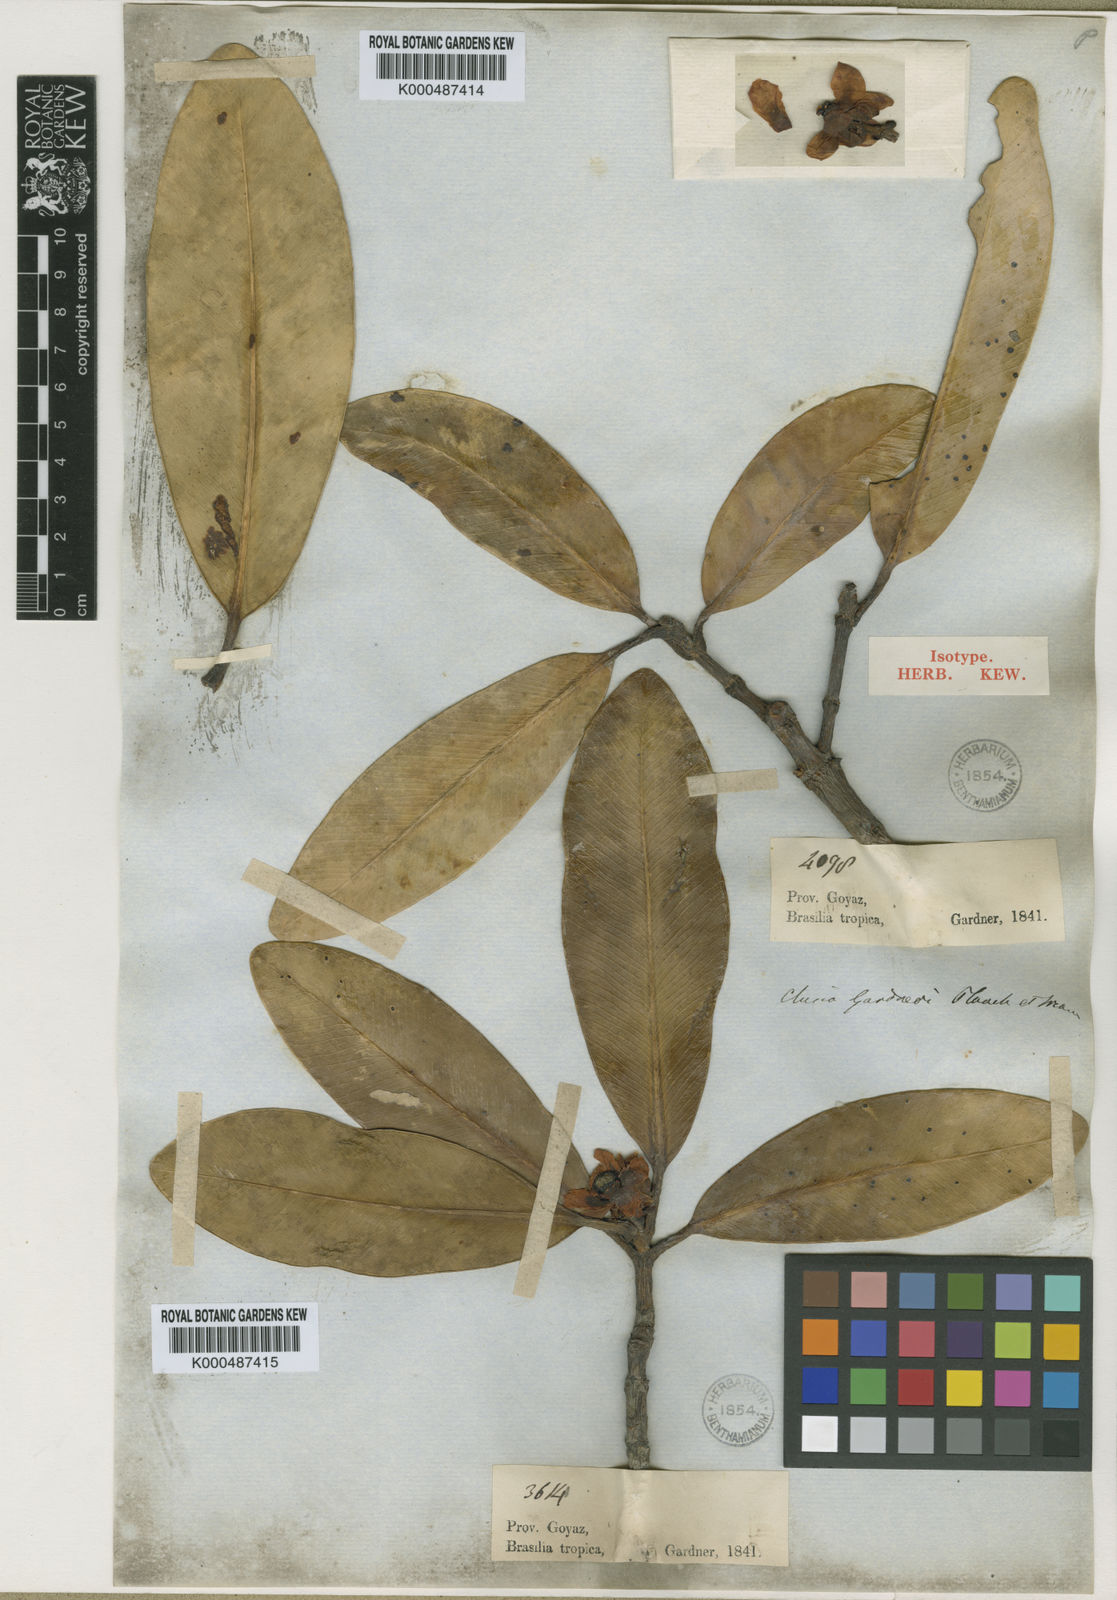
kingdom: Plantae
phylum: Tracheophyta
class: Magnoliopsida
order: Malpighiales
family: Clusiaceae
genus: Clusia
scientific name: Clusia gardneri
